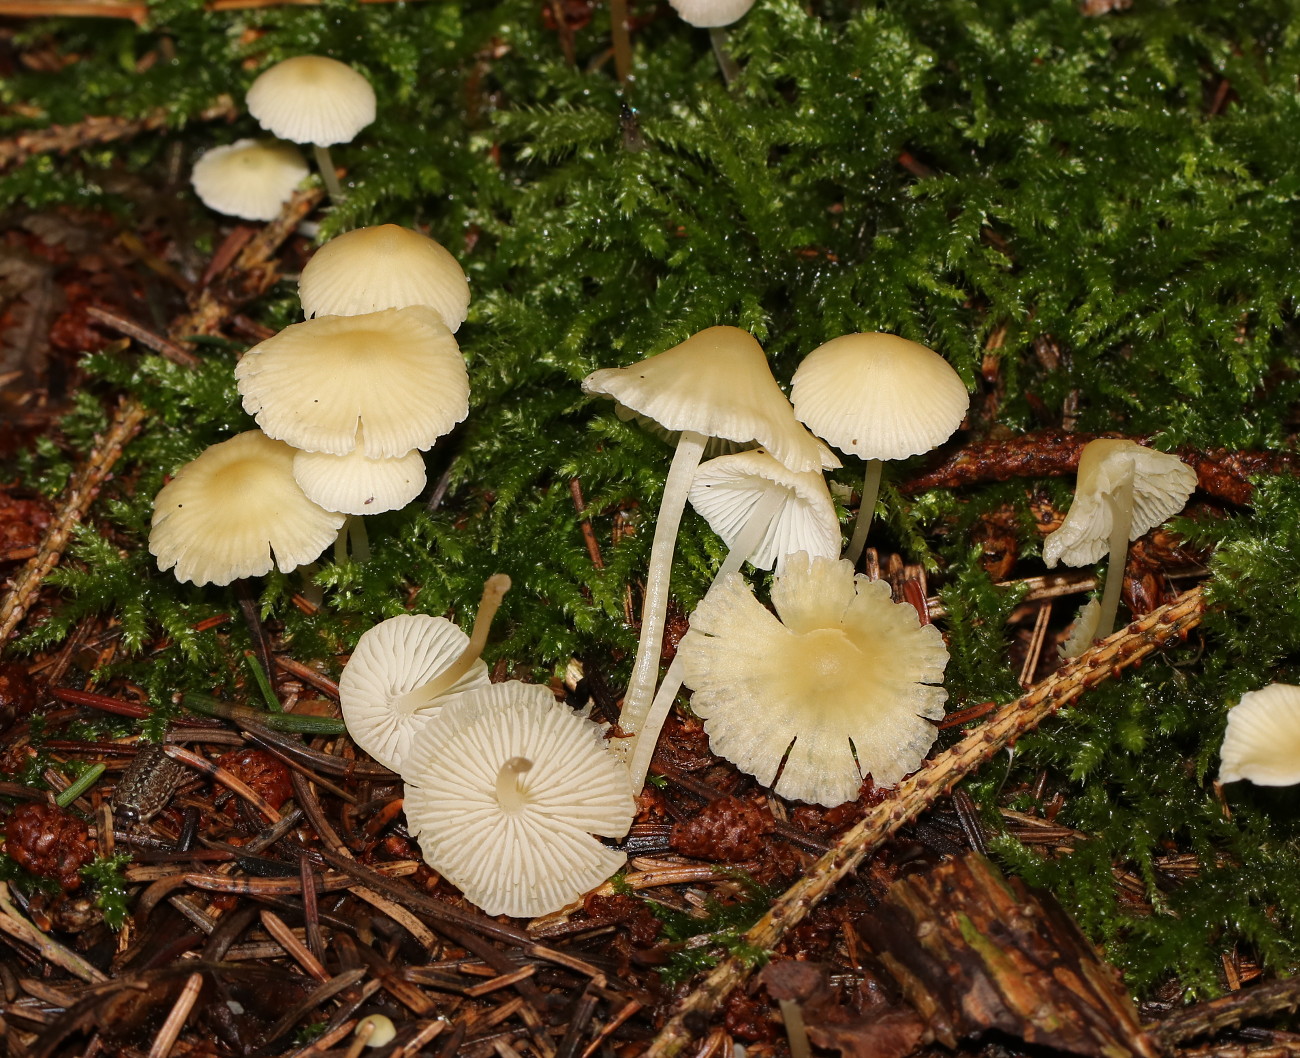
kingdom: Fungi
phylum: Basidiomycota
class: Agaricomycetes
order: Agaricales
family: Mycenaceae
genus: Atheniella
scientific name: Atheniella flavoalba
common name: gulhvid huesvamp
